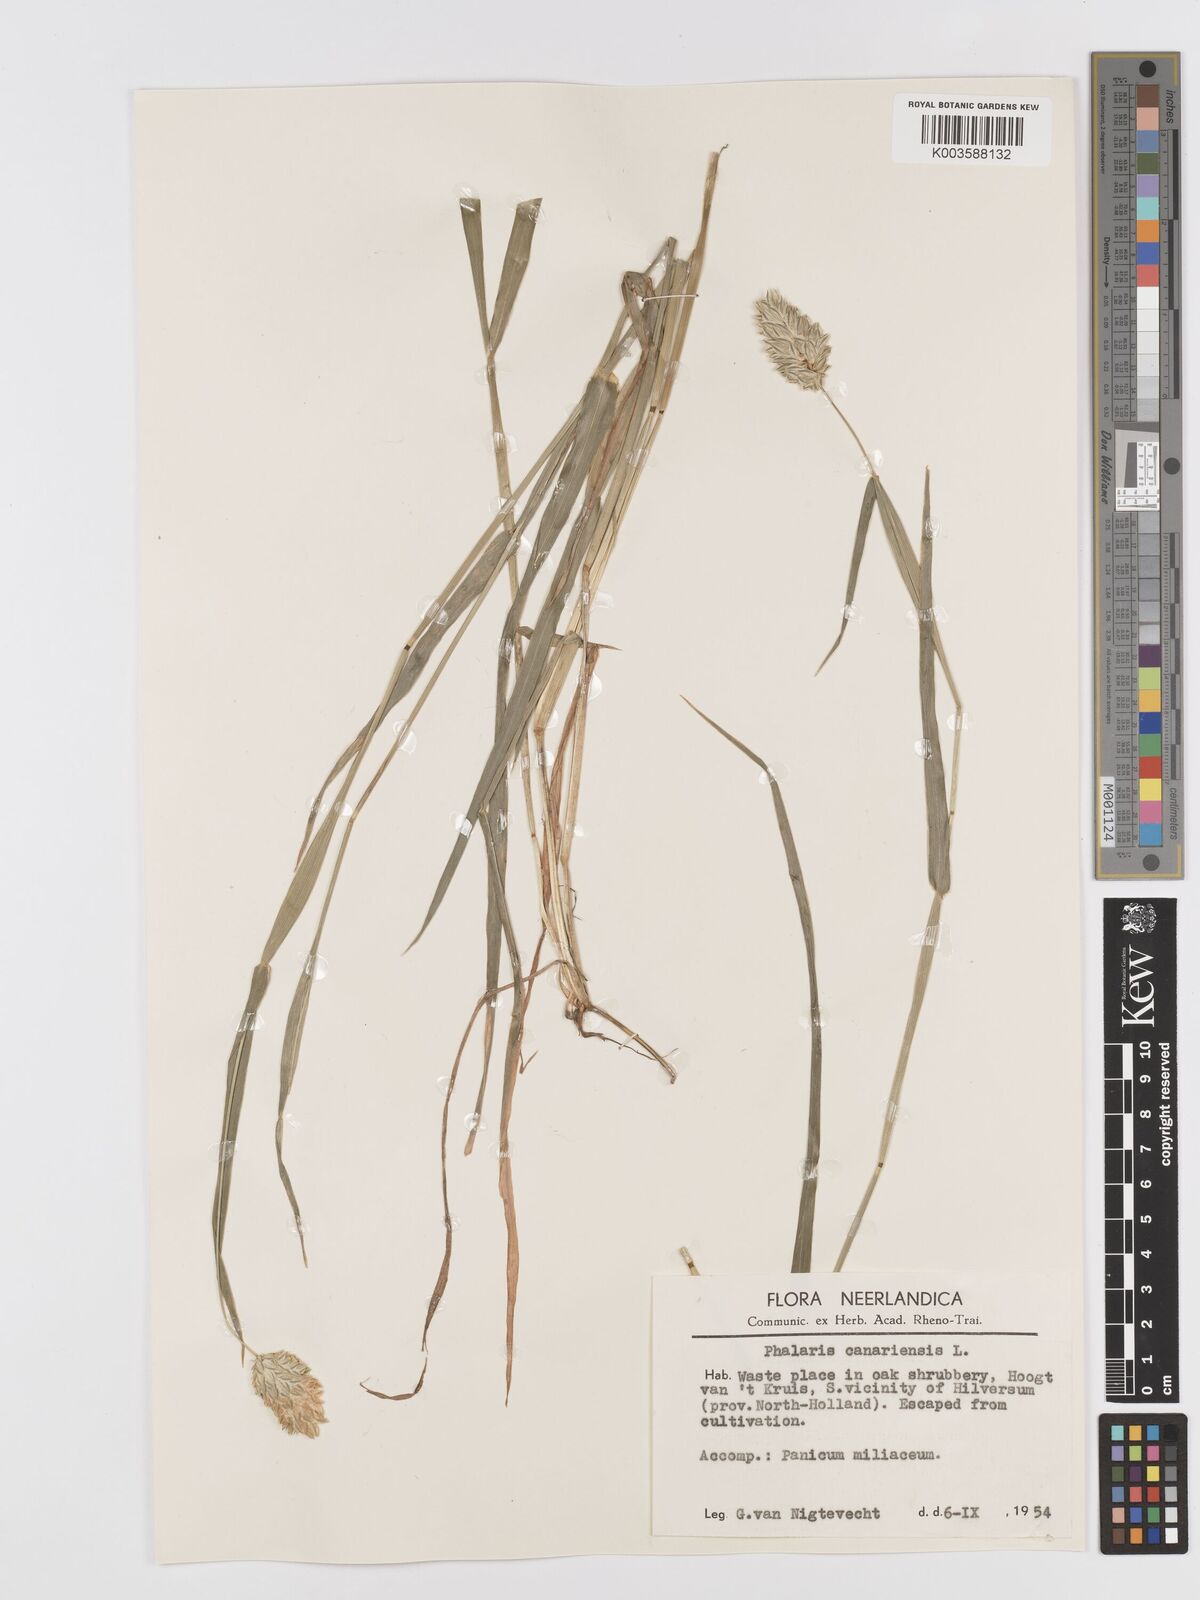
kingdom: Plantae
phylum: Tracheophyta
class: Liliopsida
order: Poales
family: Poaceae
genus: Phalaris
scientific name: Phalaris canariensis
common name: Annual canarygrass
